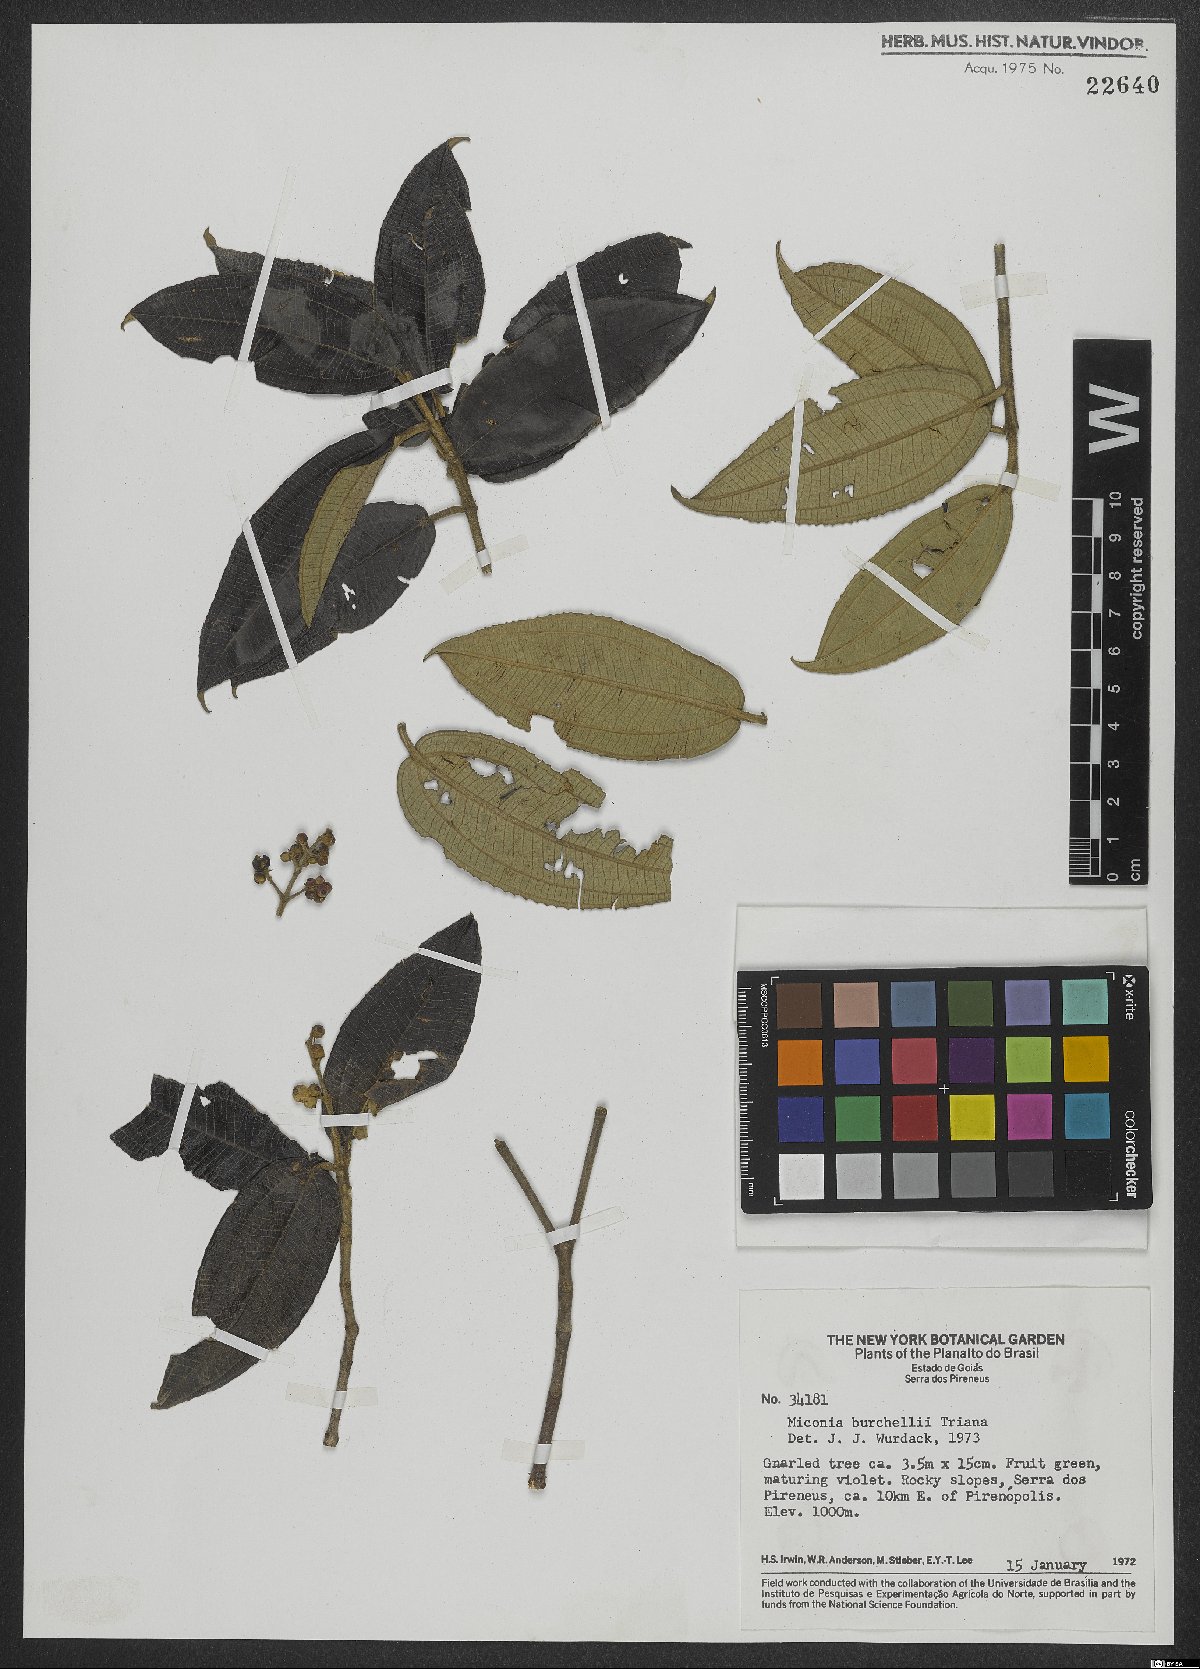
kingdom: Plantae
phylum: Tracheophyta
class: Magnoliopsida
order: Myrtales
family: Melastomataceae
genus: Miconia
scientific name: Miconia burchellii
